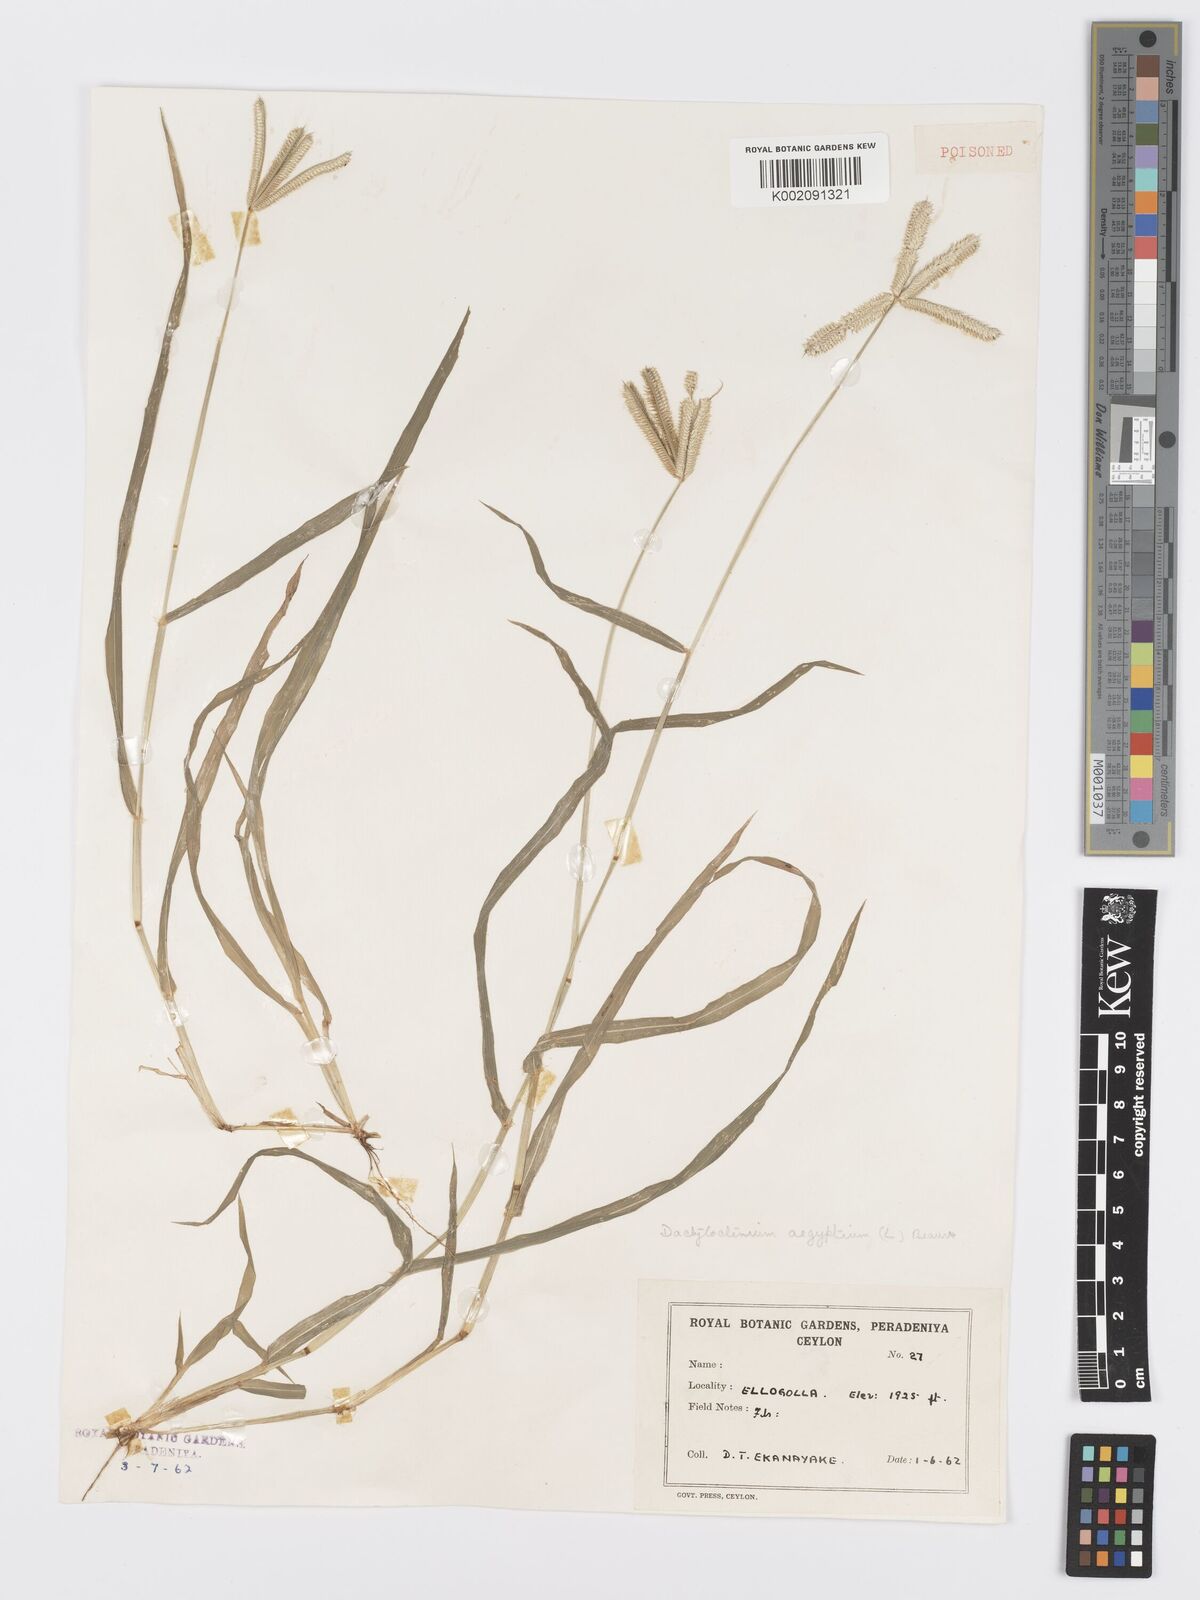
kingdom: Plantae
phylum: Tracheophyta
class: Liliopsida
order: Poales
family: Poaceae
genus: Dactyloctenium
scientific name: Dactyloctenium aegyptium
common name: Egyptian grass
